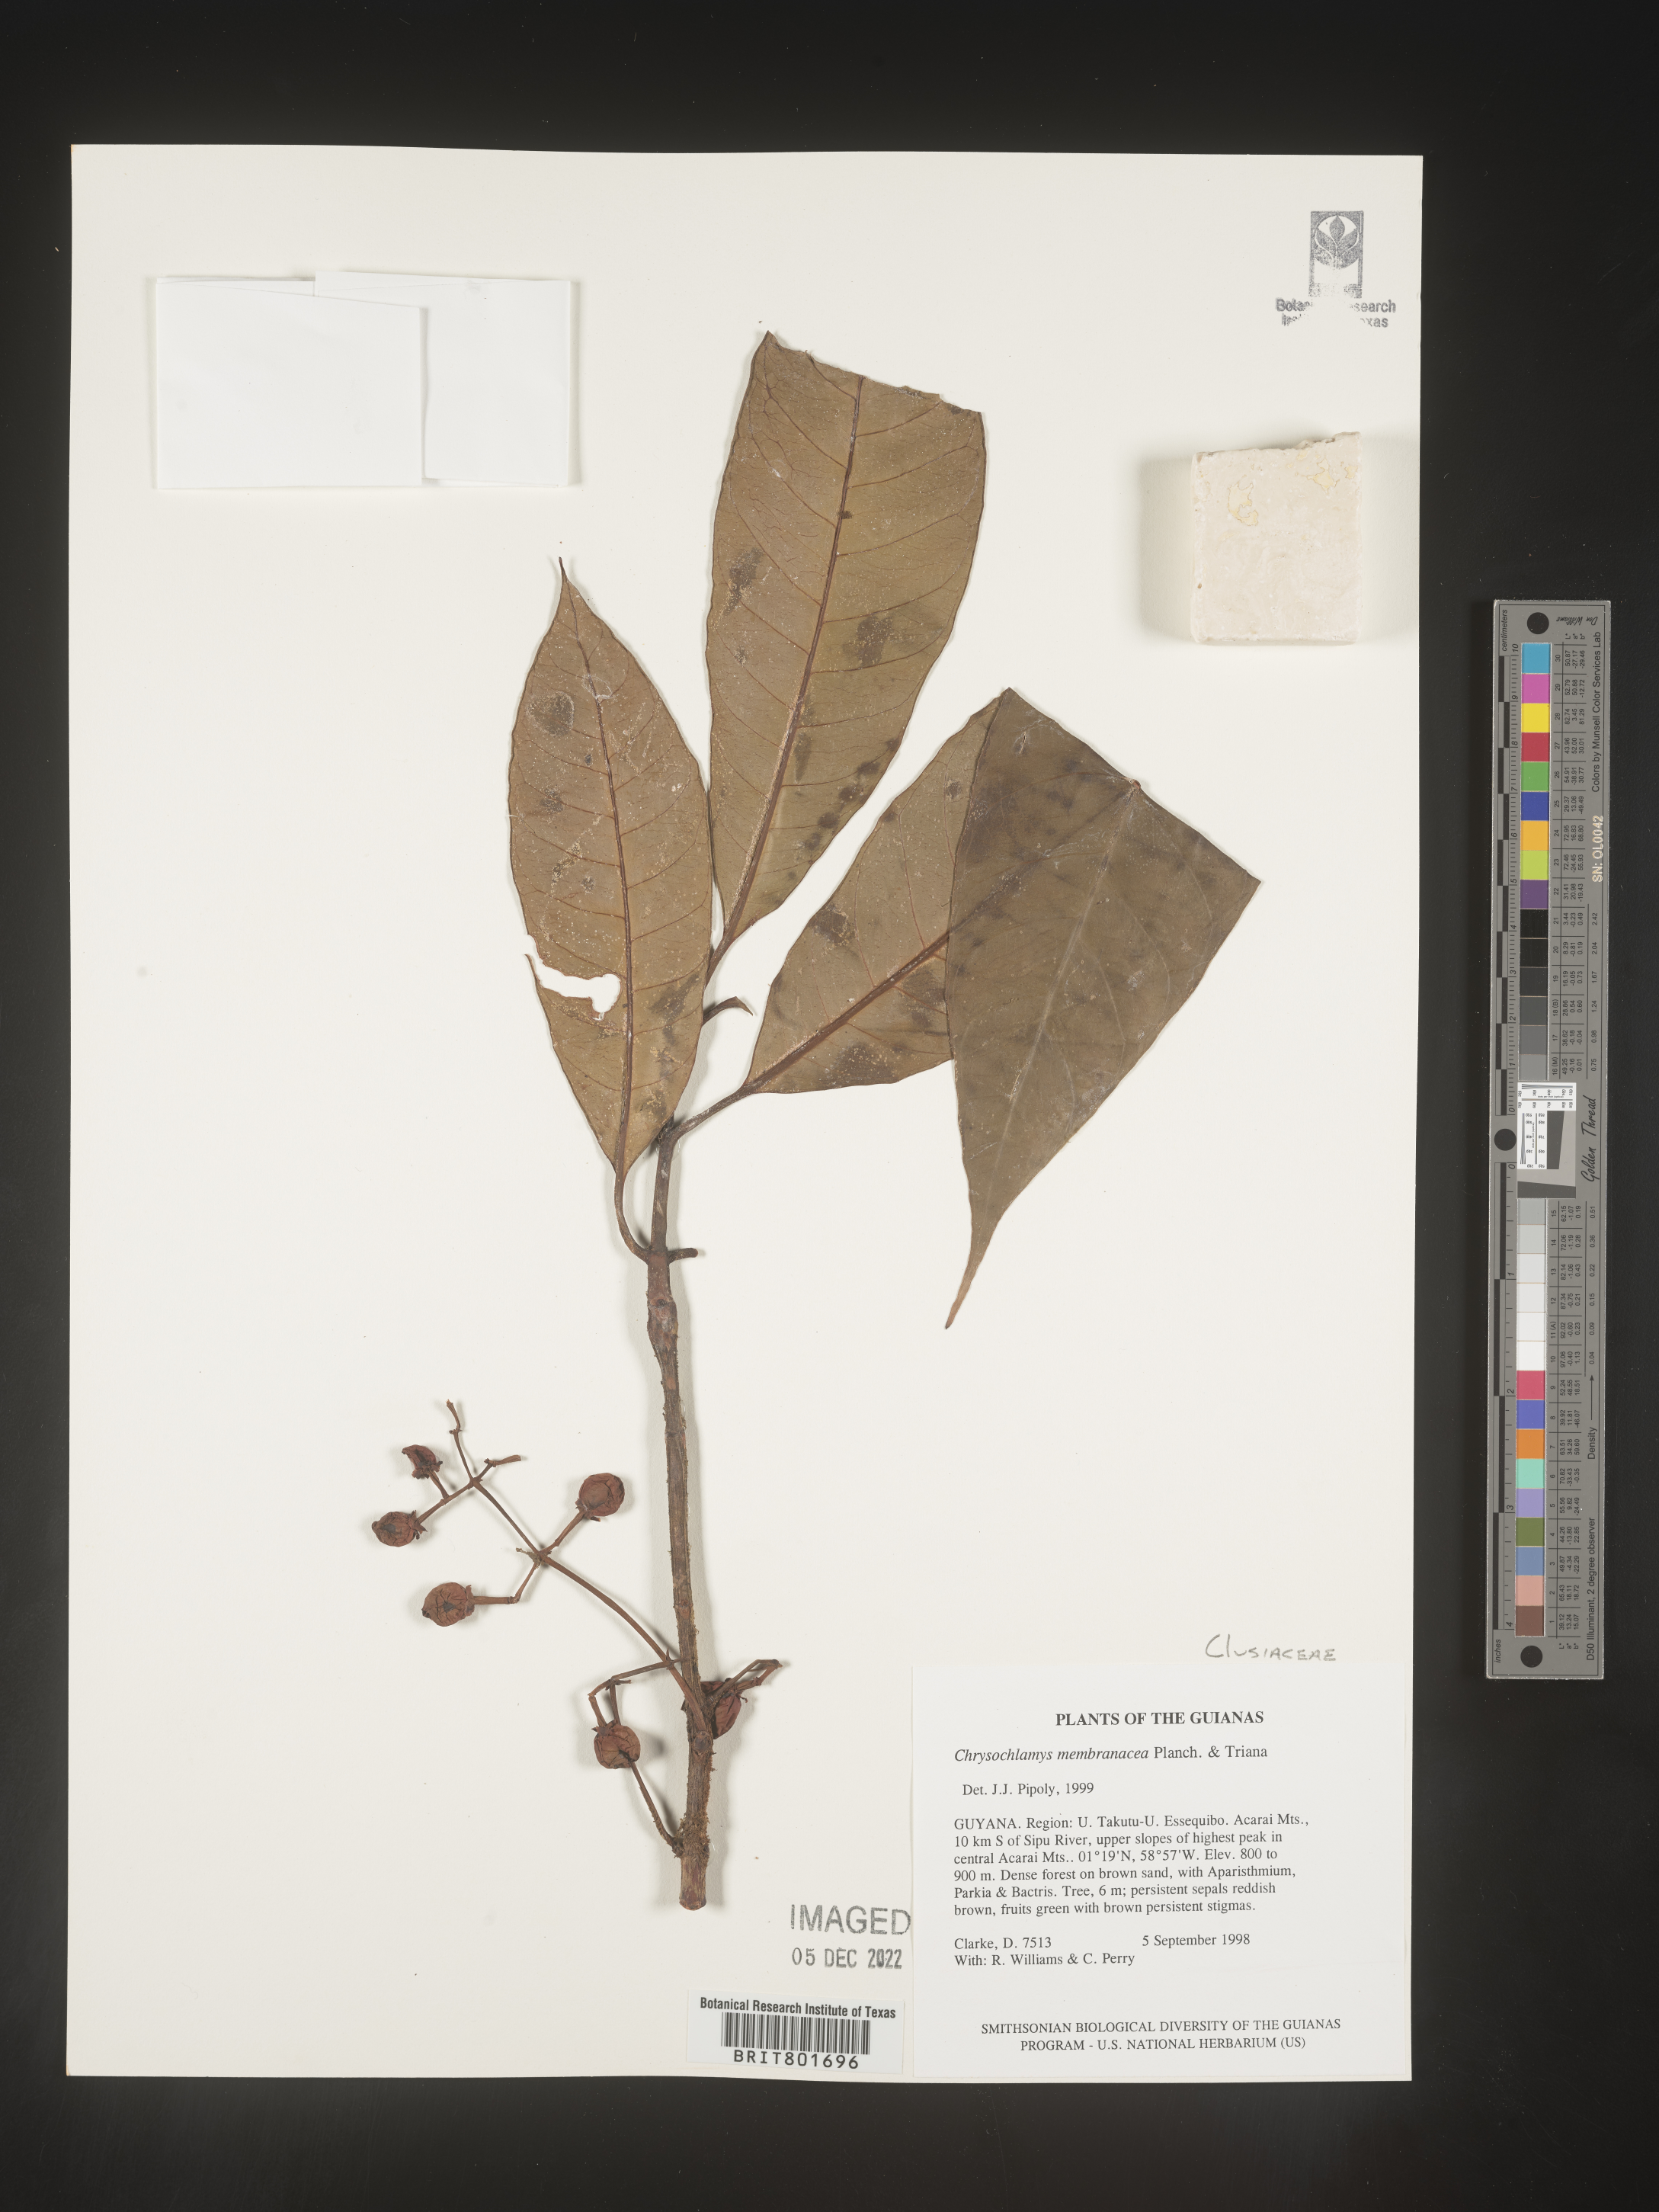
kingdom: Plantae
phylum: Tracheophyta
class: Magnoliopsida
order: Malpighiales
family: Clusiaceae
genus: Chrysochlamys
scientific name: Chrysochlamys
